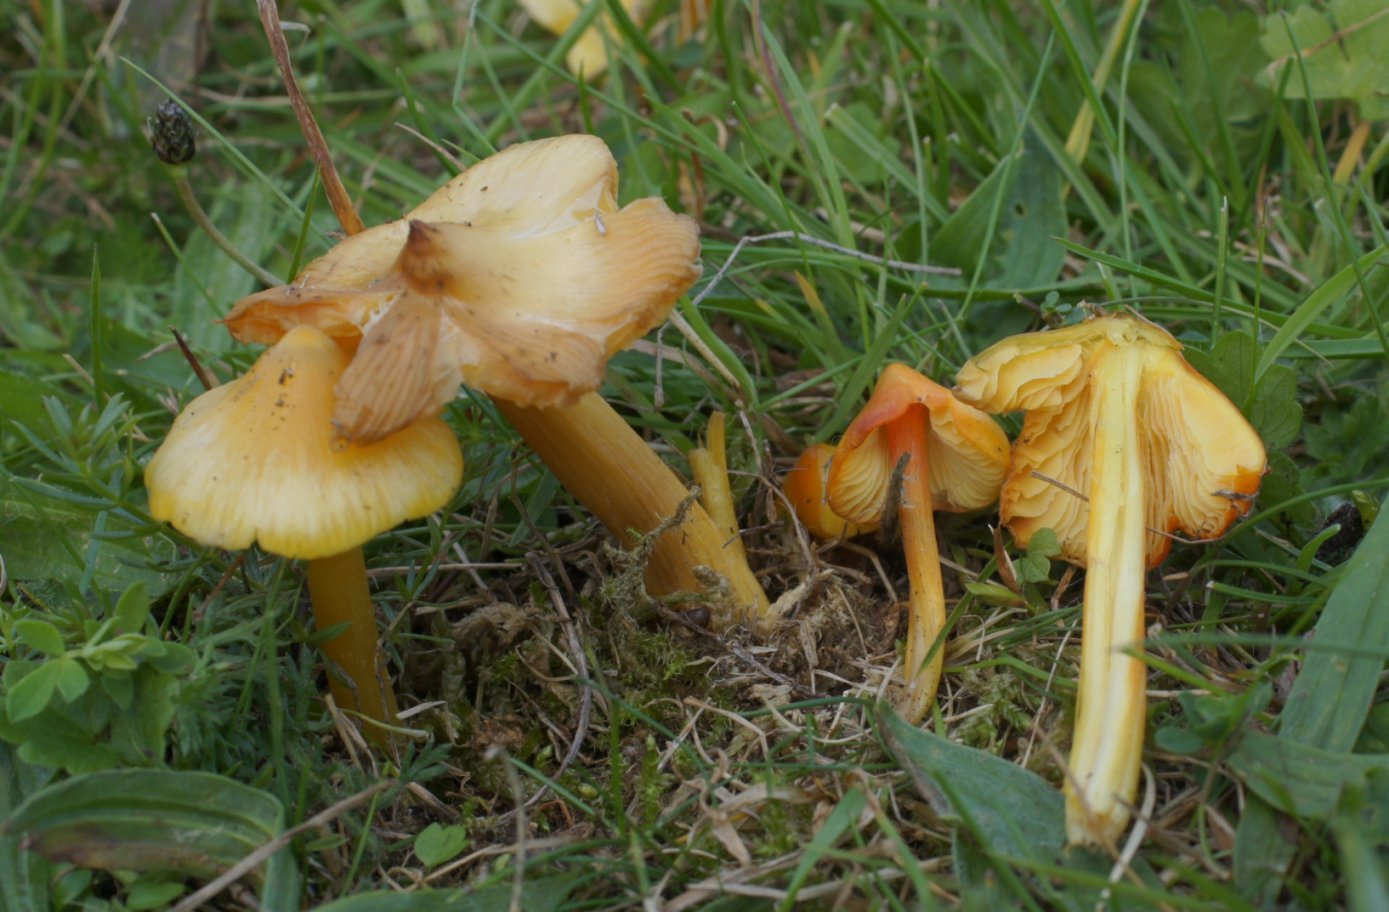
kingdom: Fungi
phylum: Basidiomycota
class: Agaricomycetes
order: Agaricales
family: Hygrophoraceae
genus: Hygrocybe
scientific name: Hygrocybe acutoconica
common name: spidspuklet vokshat
